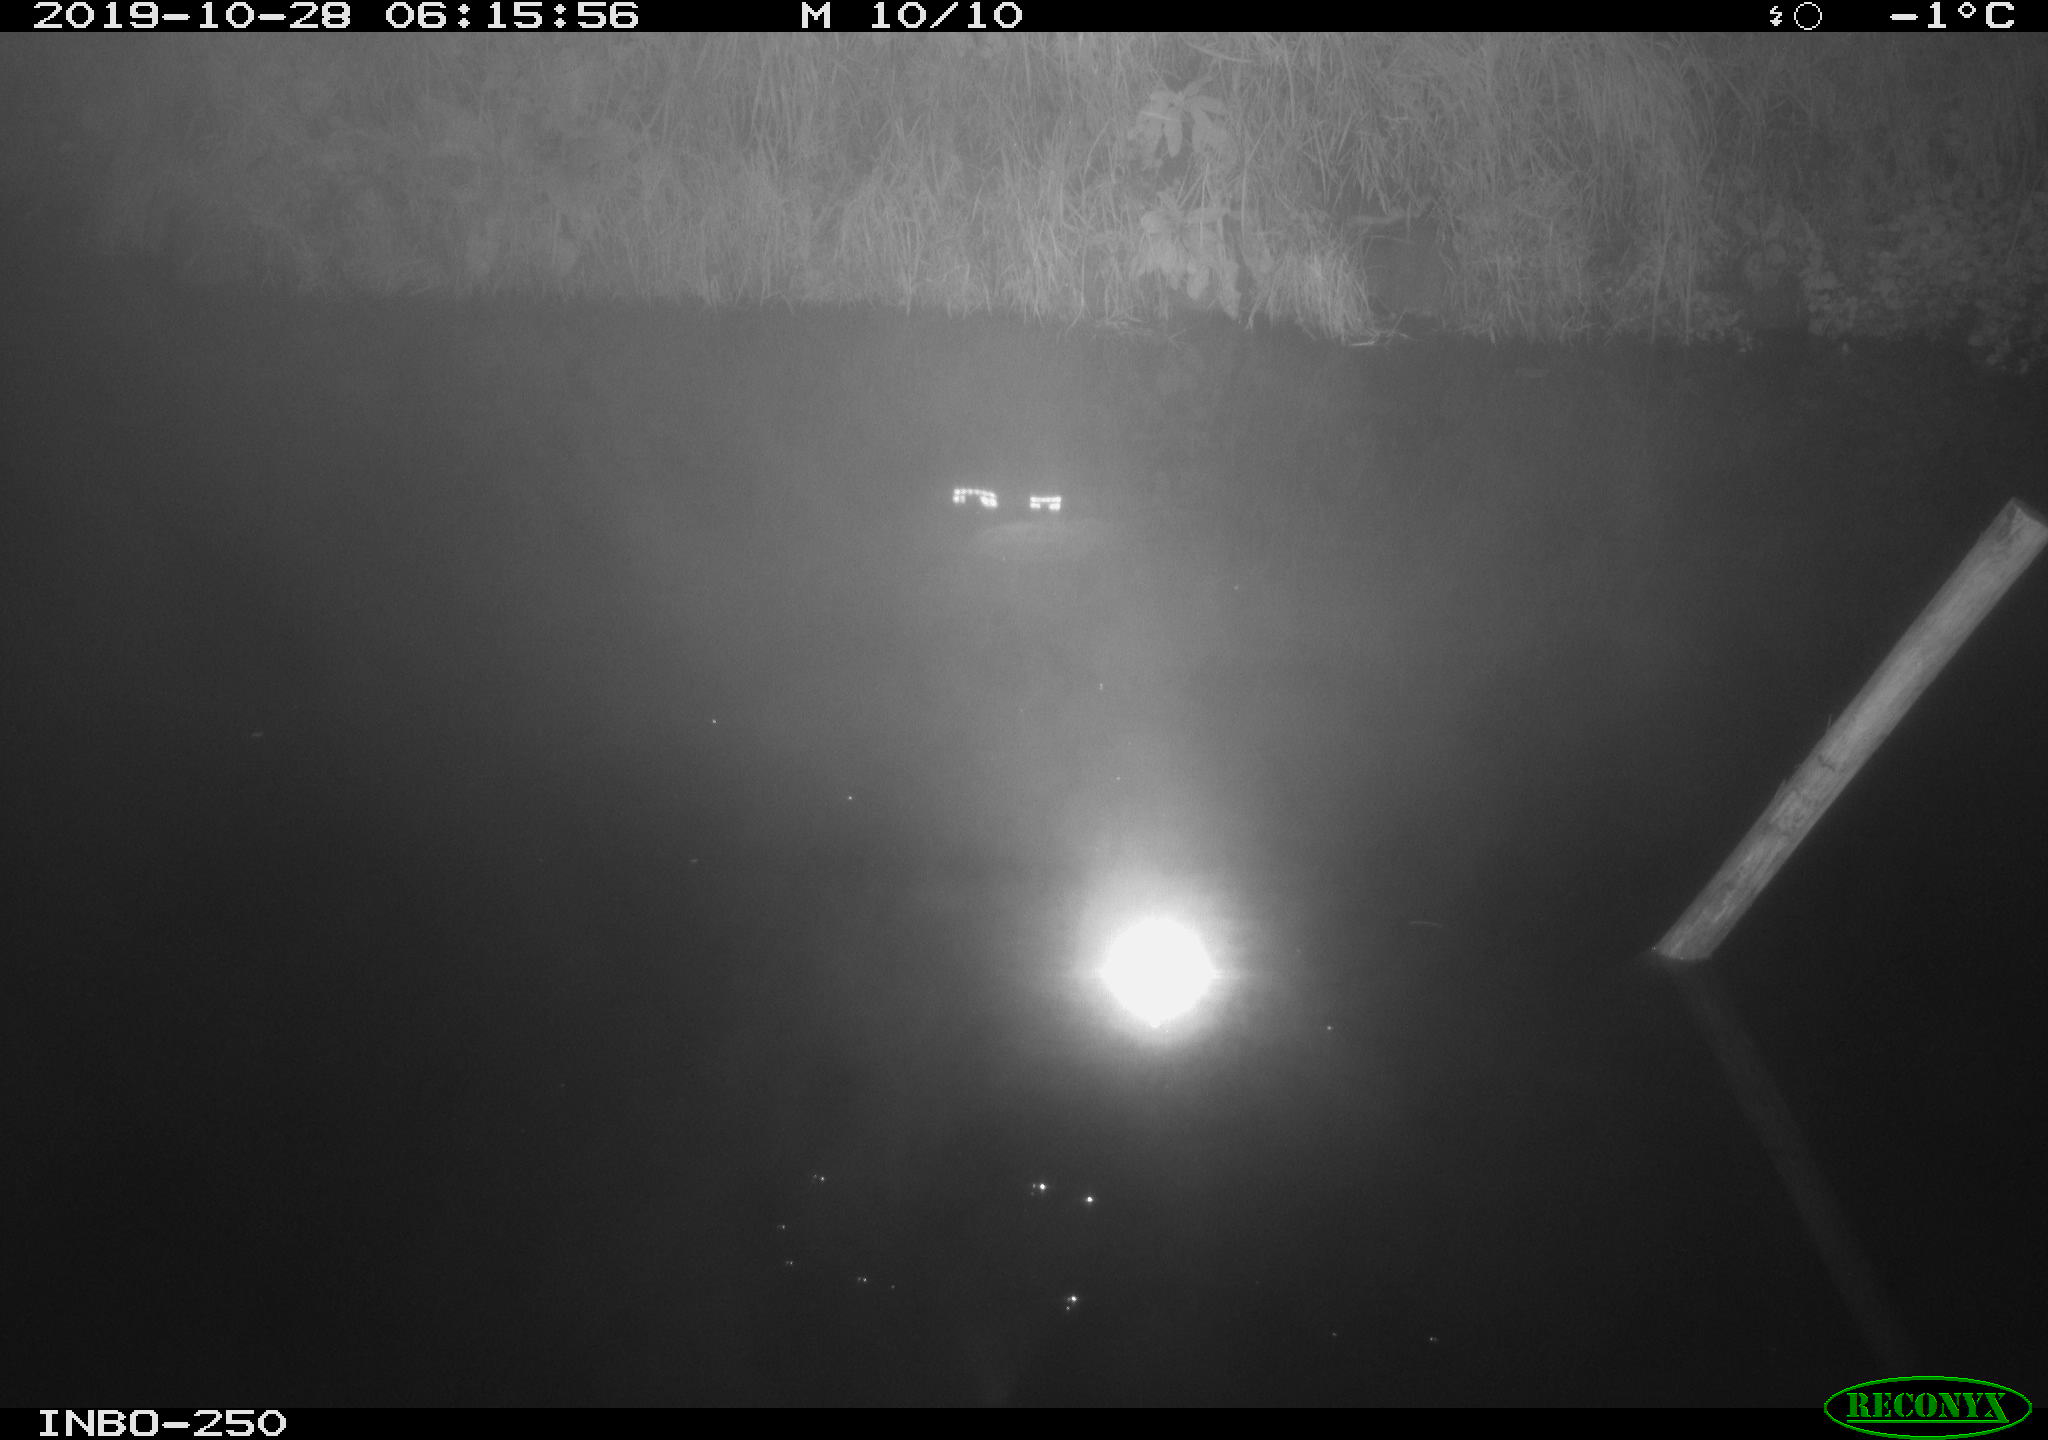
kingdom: Animalia
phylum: Chordata
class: Aves
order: Anseriformes
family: Anatidae
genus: Anas
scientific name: Anas platyrhynchos
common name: Mallard
